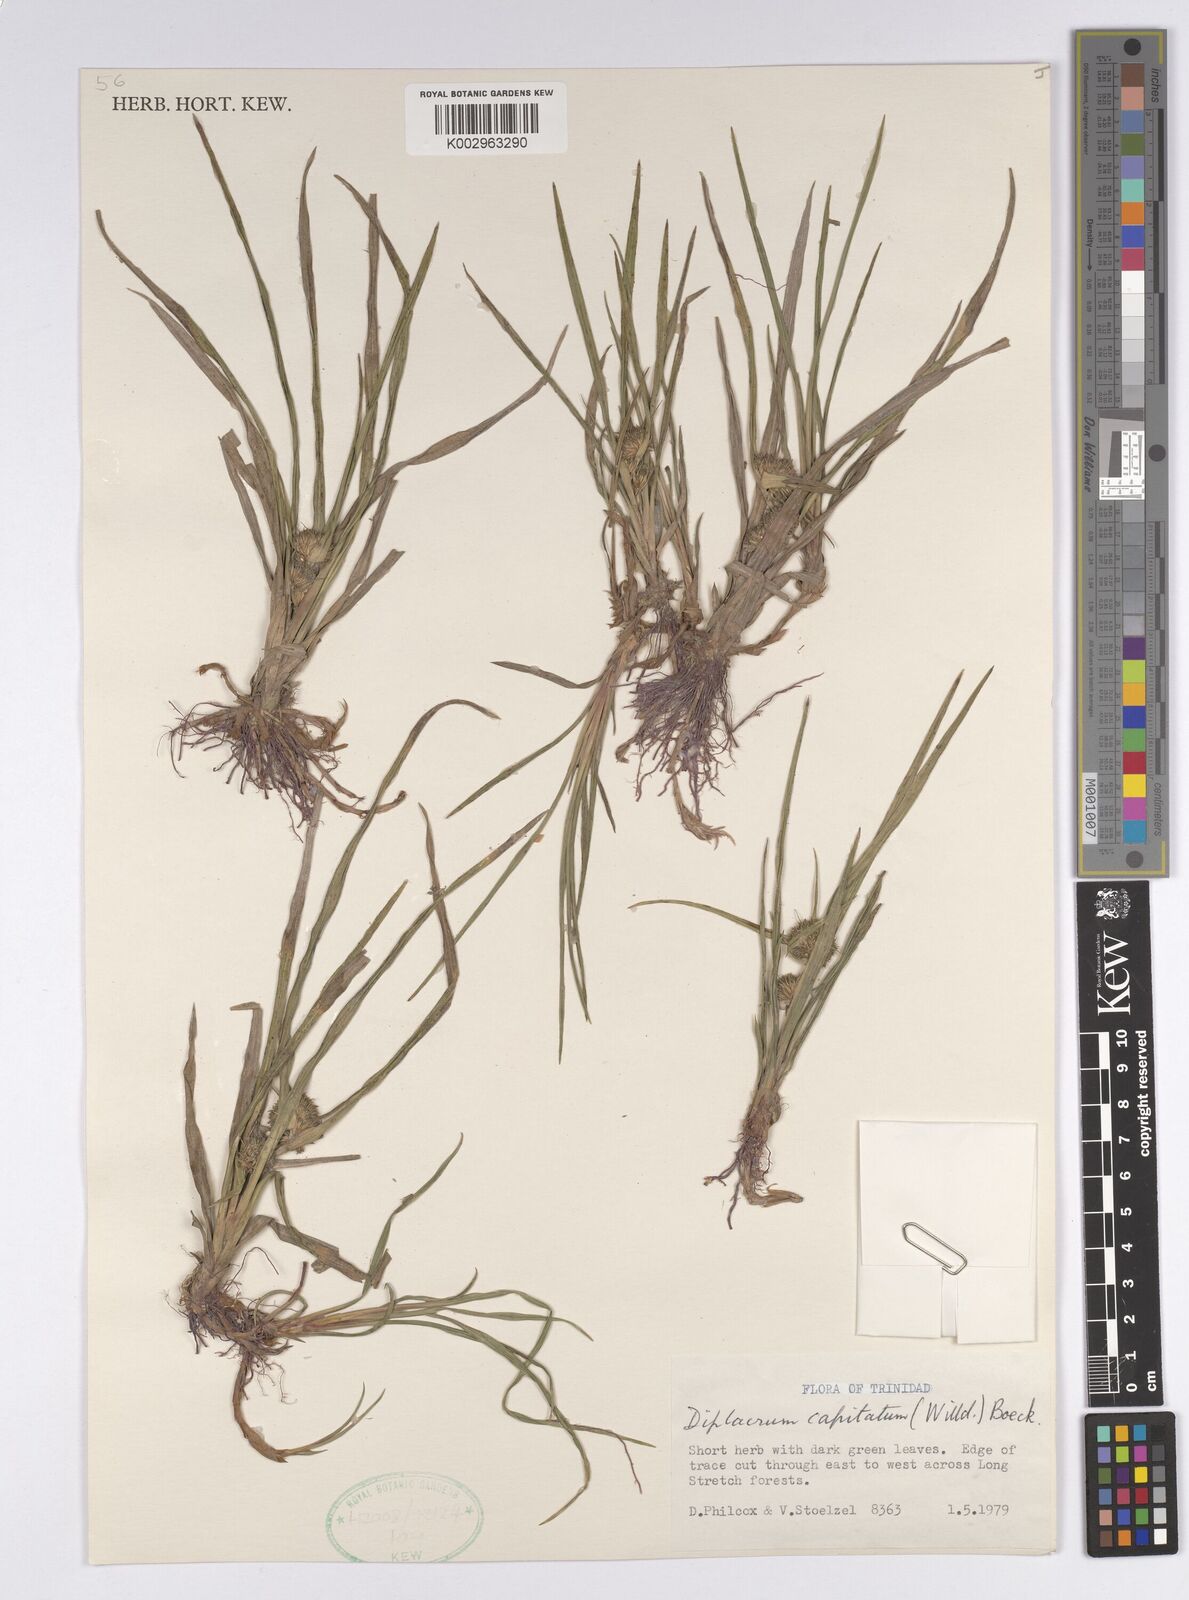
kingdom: Plantae
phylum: Tracheophyta
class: Liliopsida
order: Poales
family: Cyperaceae
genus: Diplacrum
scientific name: Diplacrum capitatum
